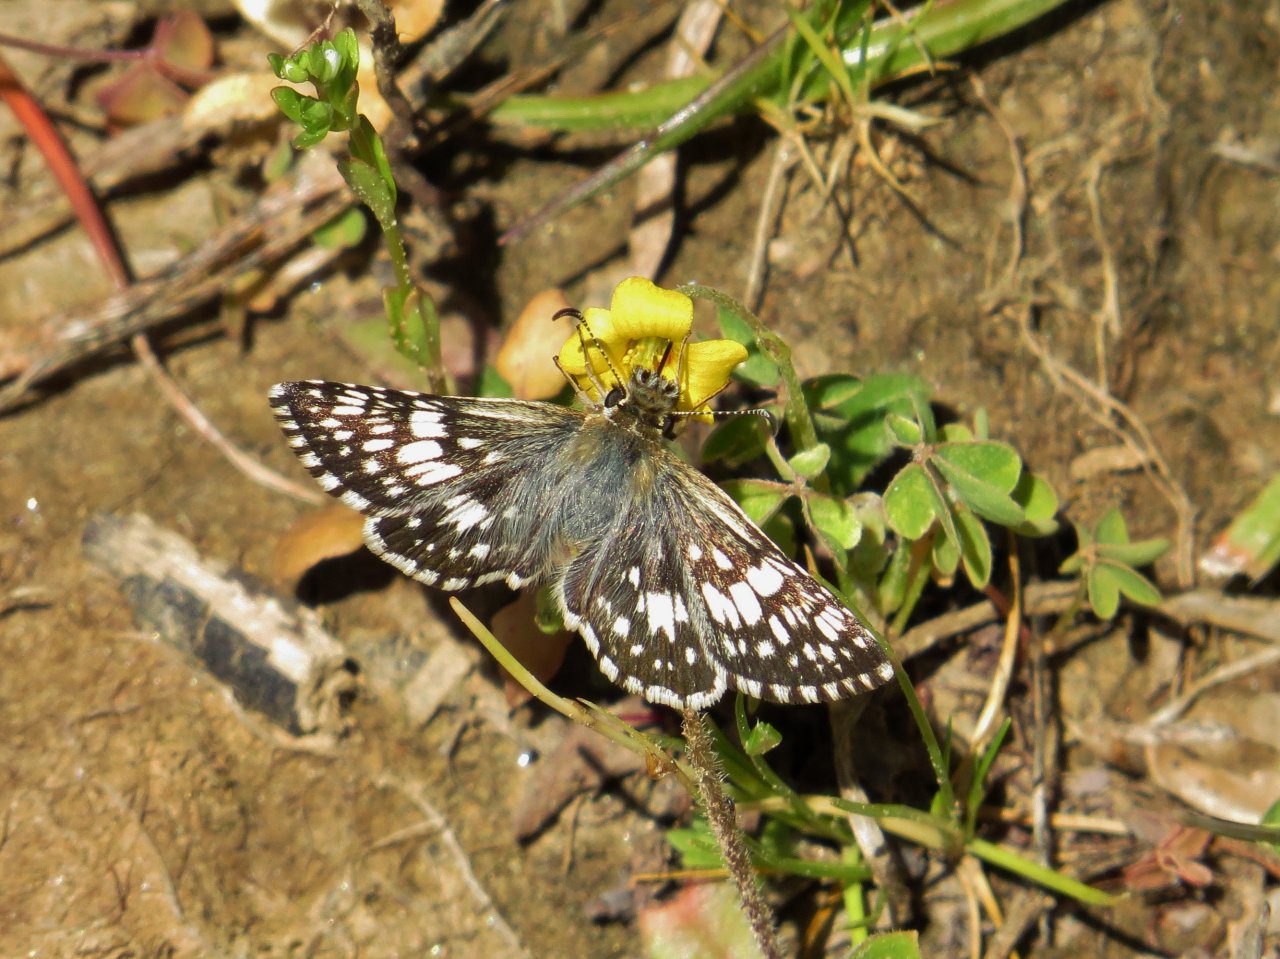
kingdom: Animalia
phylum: Arthropoda
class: Insecta
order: Lepidoptera
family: Hesperiidae
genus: Pyrgus
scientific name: Pyrgus communis
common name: White Checkered-Skipper
